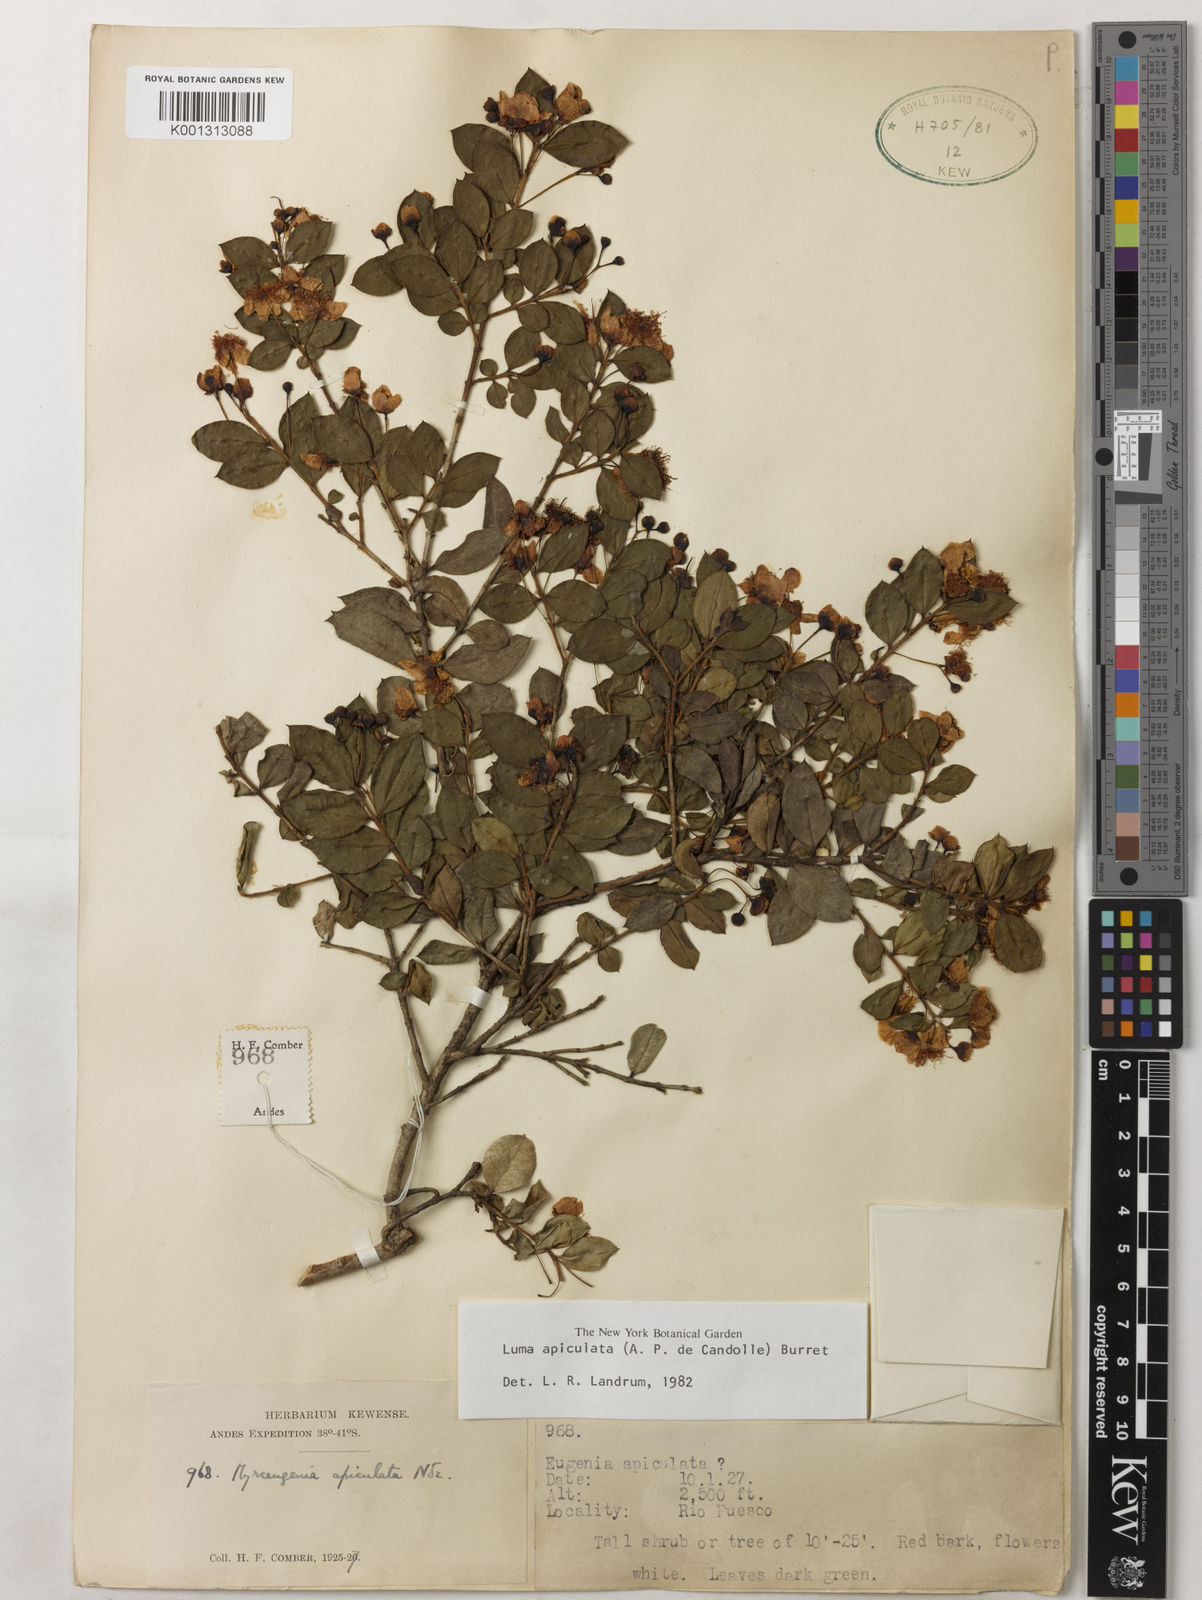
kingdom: Plantae
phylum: Tracheophyta
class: Magnoliopsida
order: Myrtales
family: Myrtaceae
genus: Luma
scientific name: Luma apiculata
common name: Chilean myrtle
